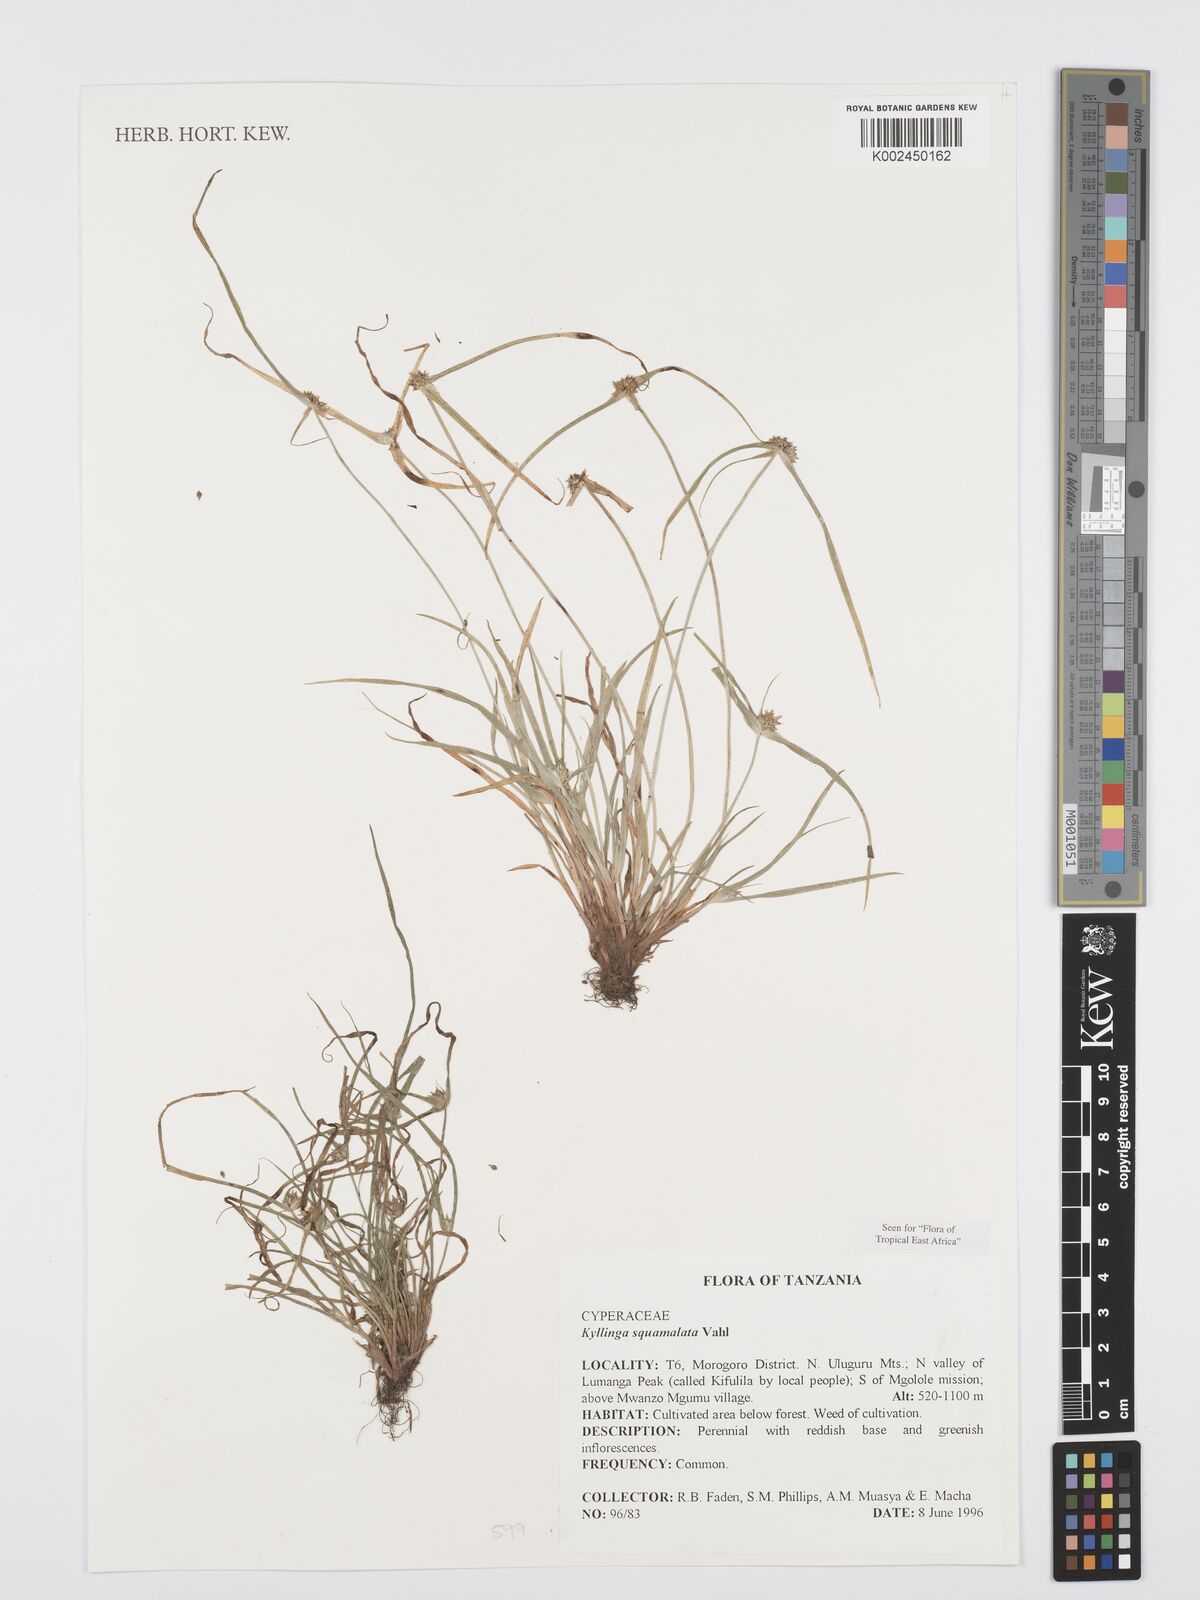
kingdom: Plantae
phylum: Tracheophyta
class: Liliopsida
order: Poales
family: Cyperaceae
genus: Cyperus
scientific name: Cyperus distans
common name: Slender cyperus
